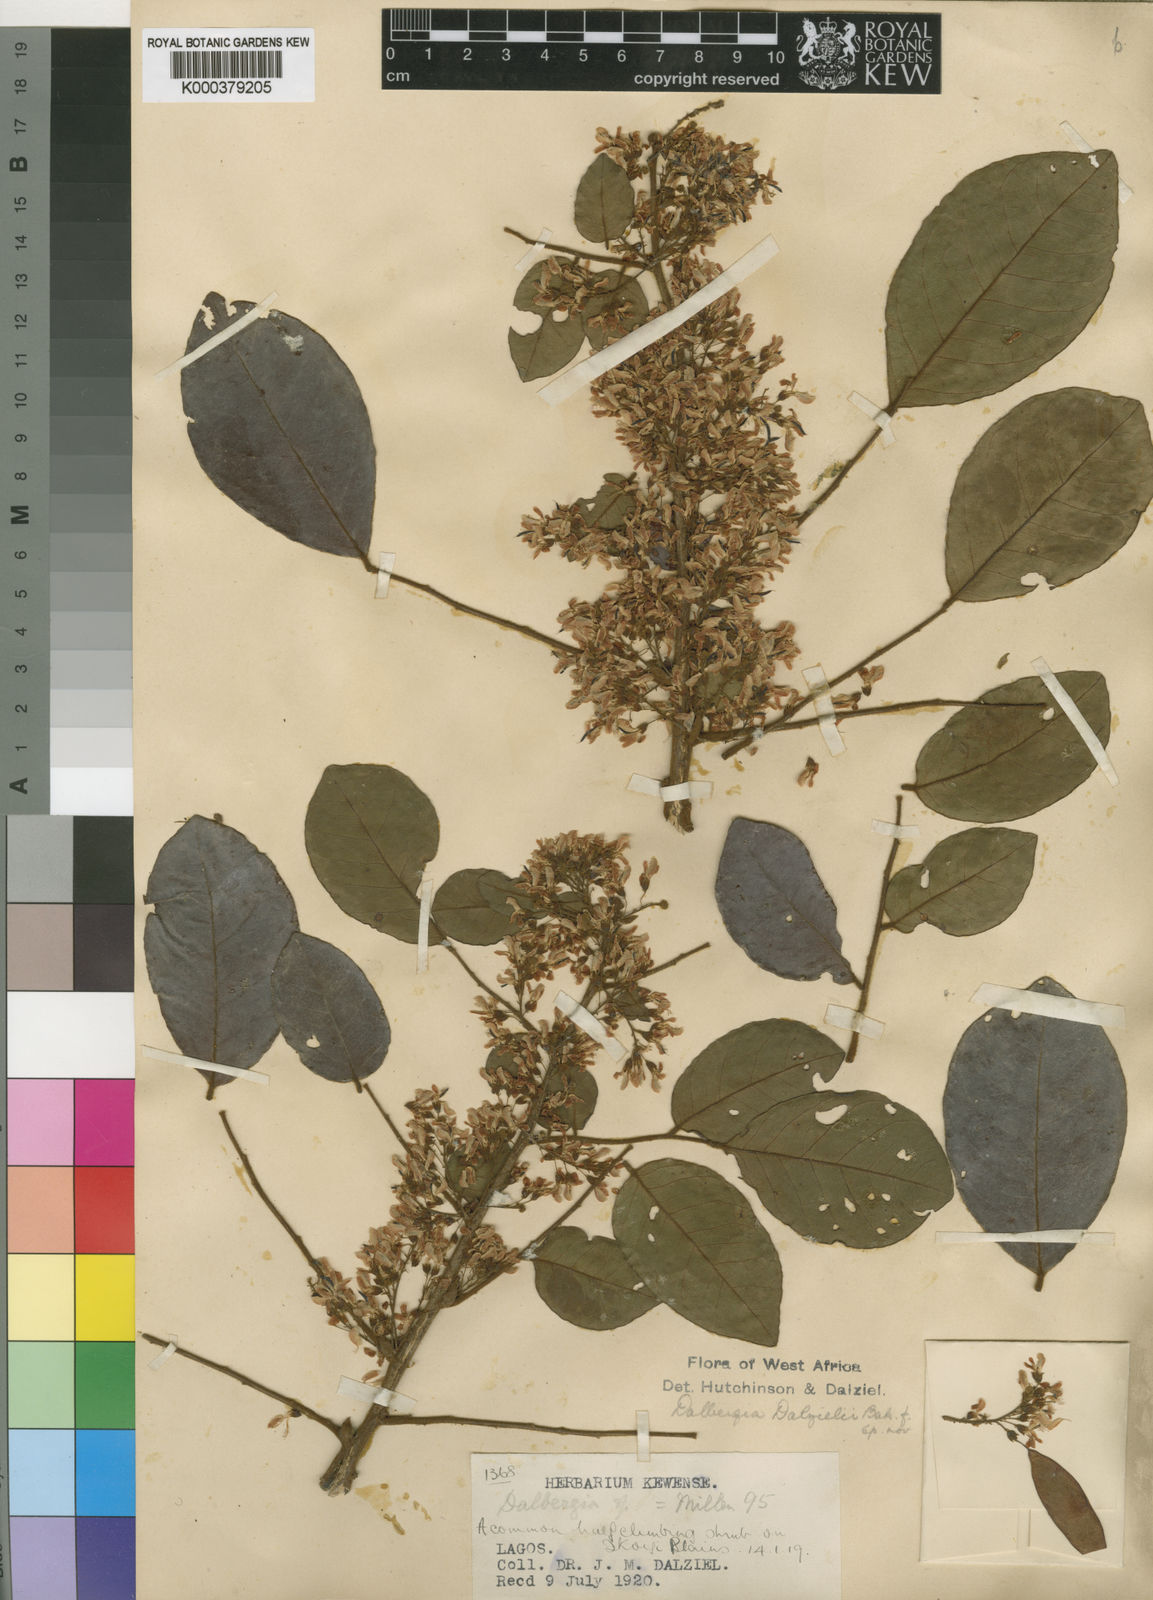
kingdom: Plantae
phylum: Tracheophyta
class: Magnoliopsida
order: Fabales
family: Fabaceae
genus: Dalbergia
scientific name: Dalbergia dalzielii ex
